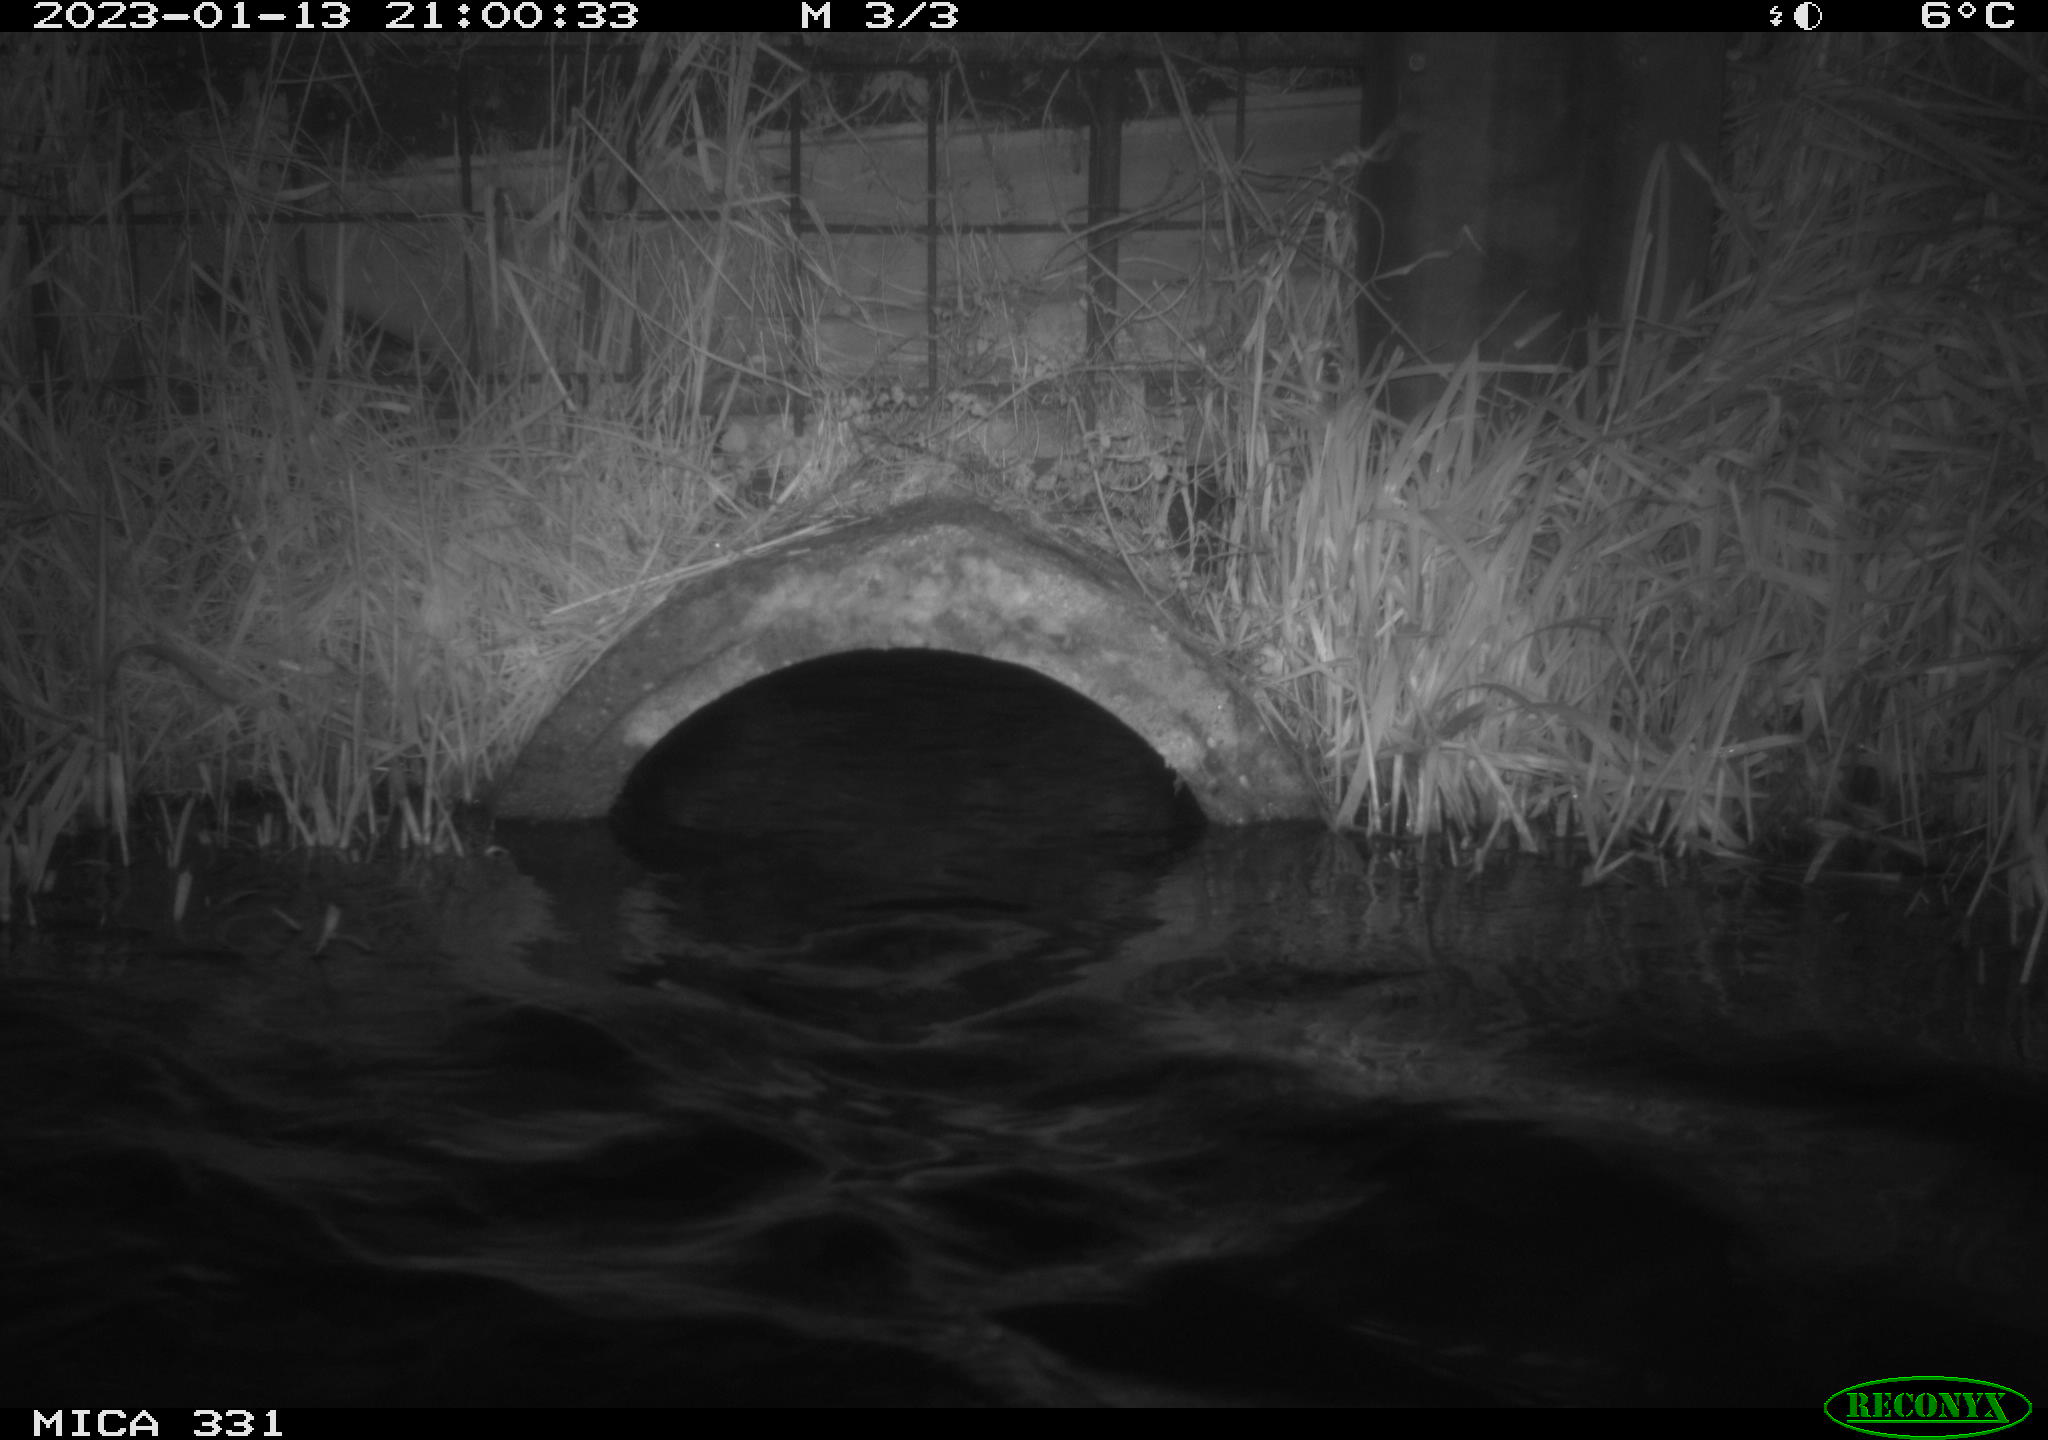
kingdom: Animalia
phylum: Chordata
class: Mammalia
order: Rodentia
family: Muridae
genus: Rattus
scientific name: Rattus norvegicus
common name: Brown rat
